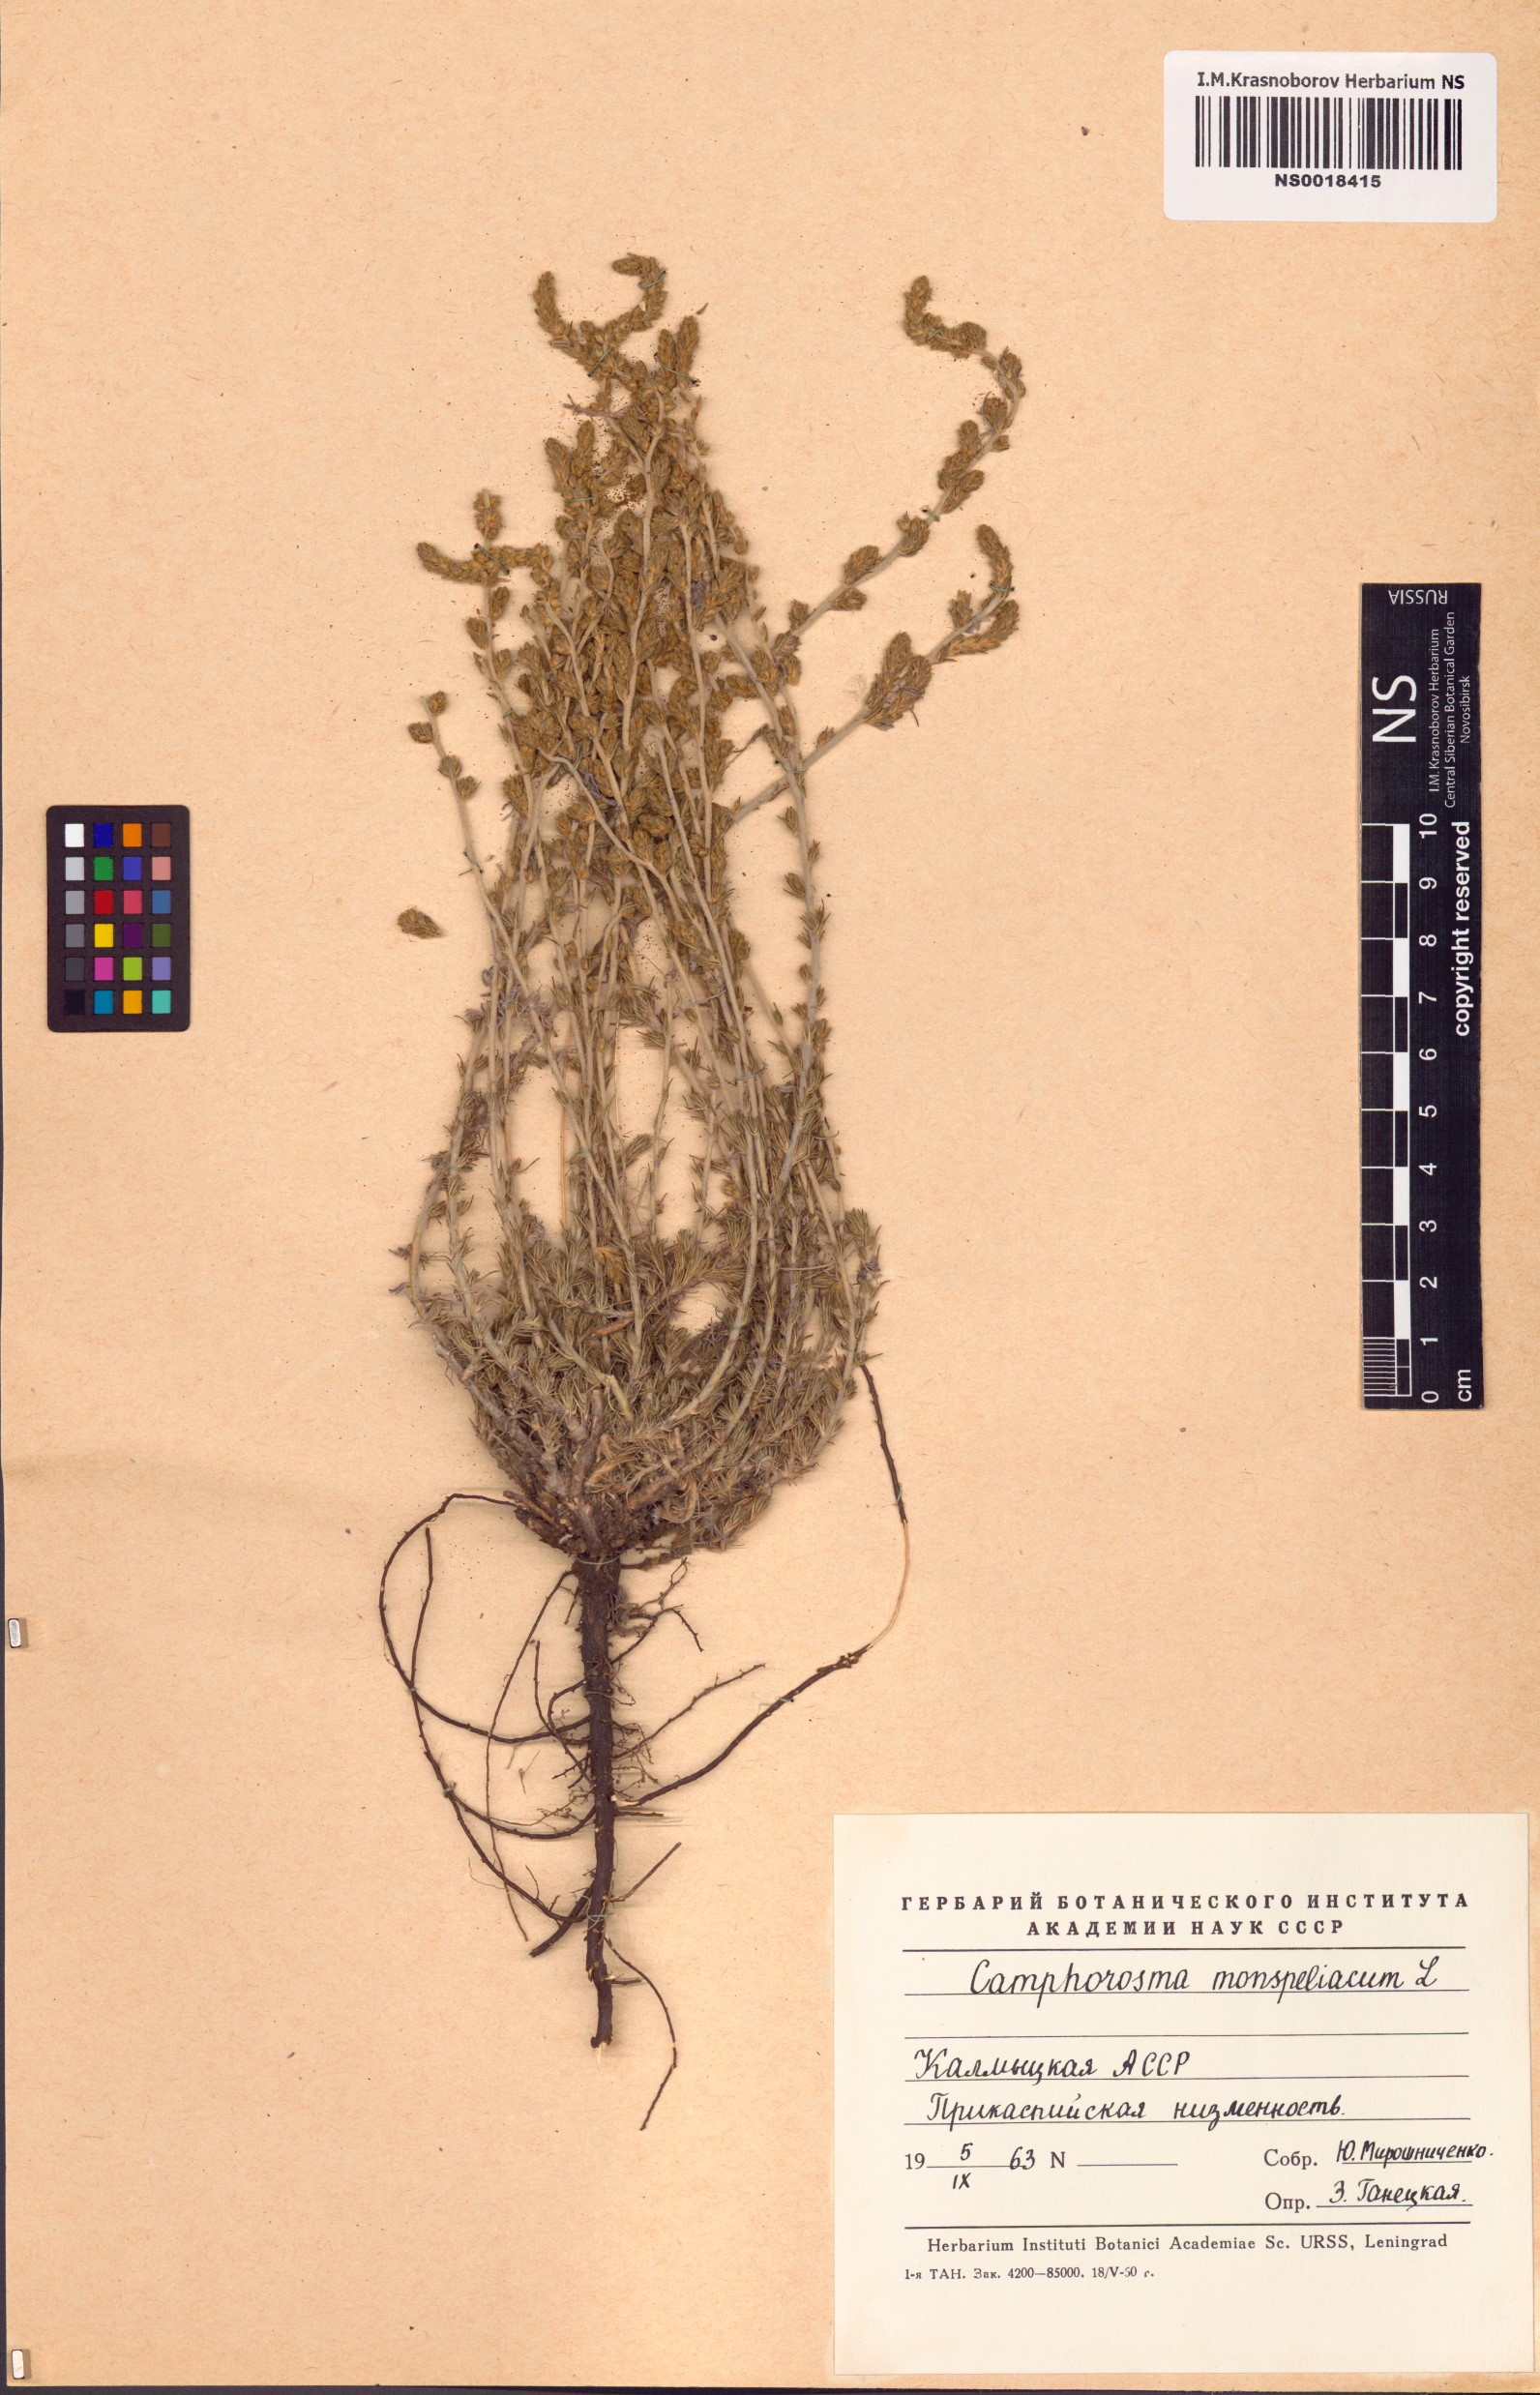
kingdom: Plantae
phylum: Tracheophyta
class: Magnoliopsida
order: Caryophyllales
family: Amaranthaceae
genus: Camphorosma
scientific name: Camphorosma monspeliaca
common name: Camphorfume
